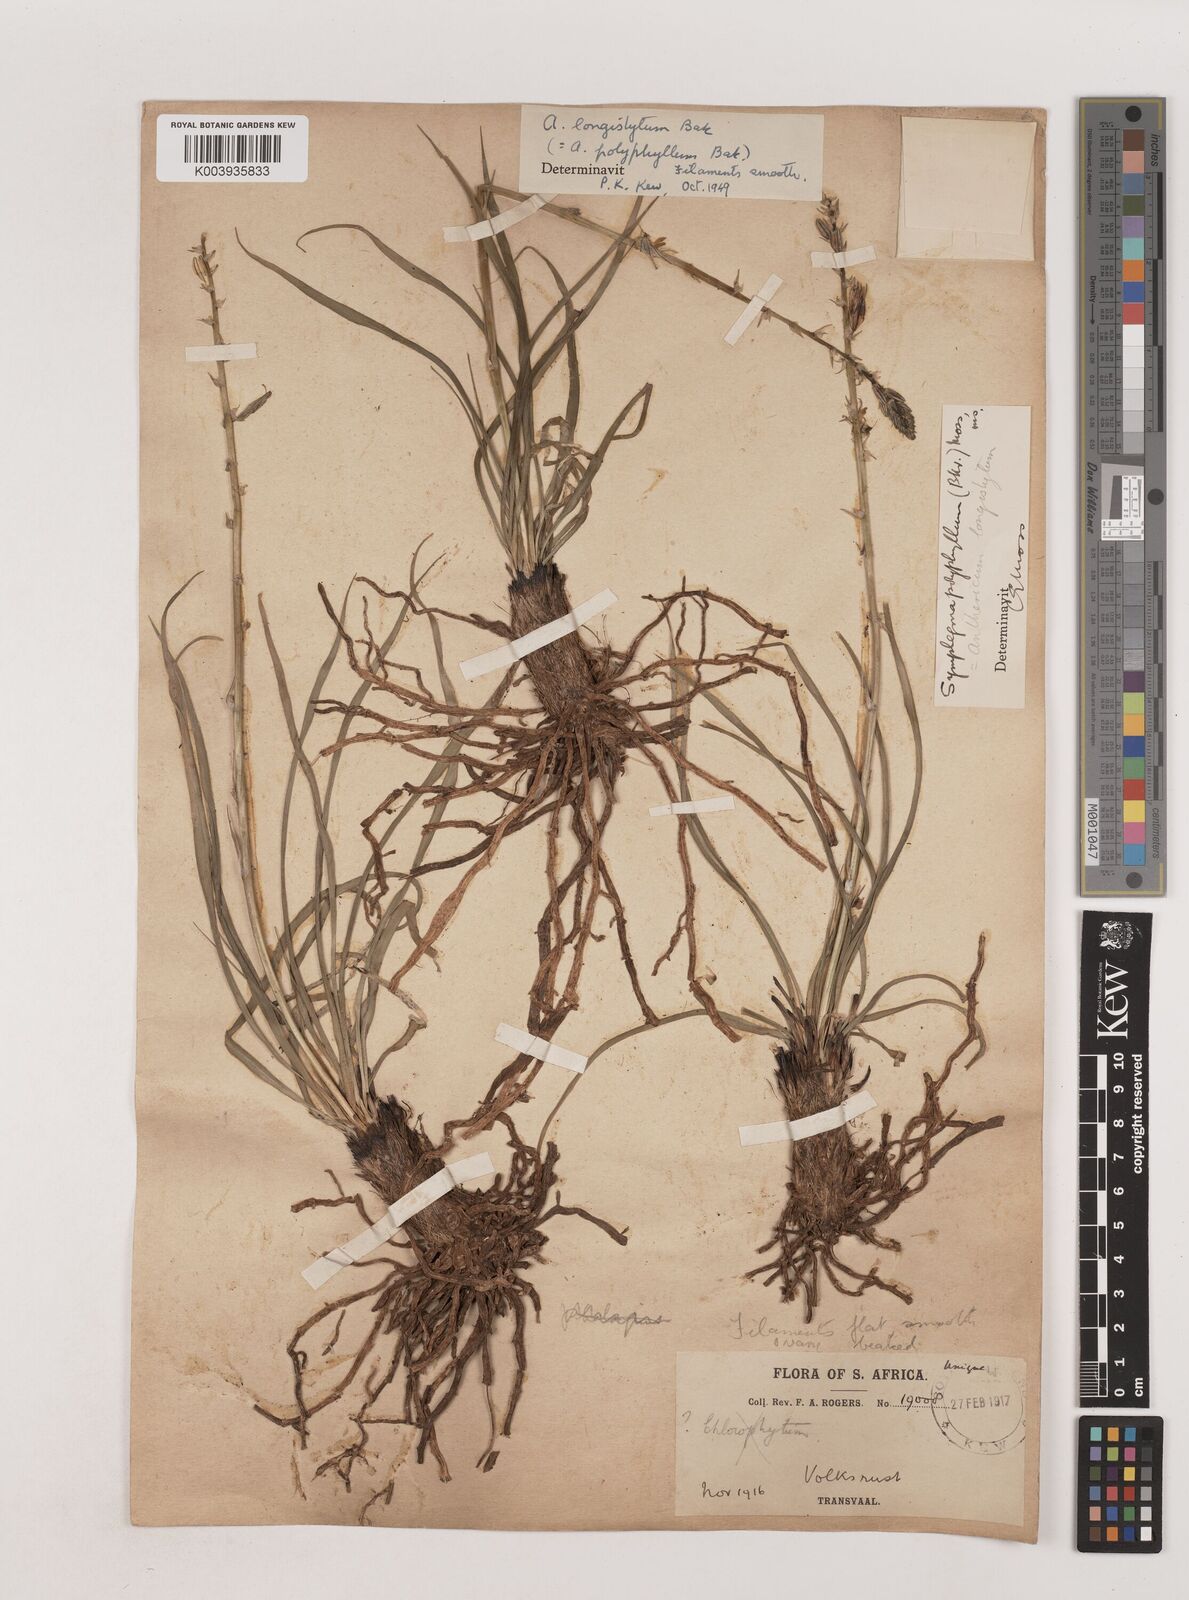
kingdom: Plantae
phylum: Tracheophyta
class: Liliopsida
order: Asparagales
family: Asparagaceae
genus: Chlorophytum
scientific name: Chlorophytum recurvifolium
